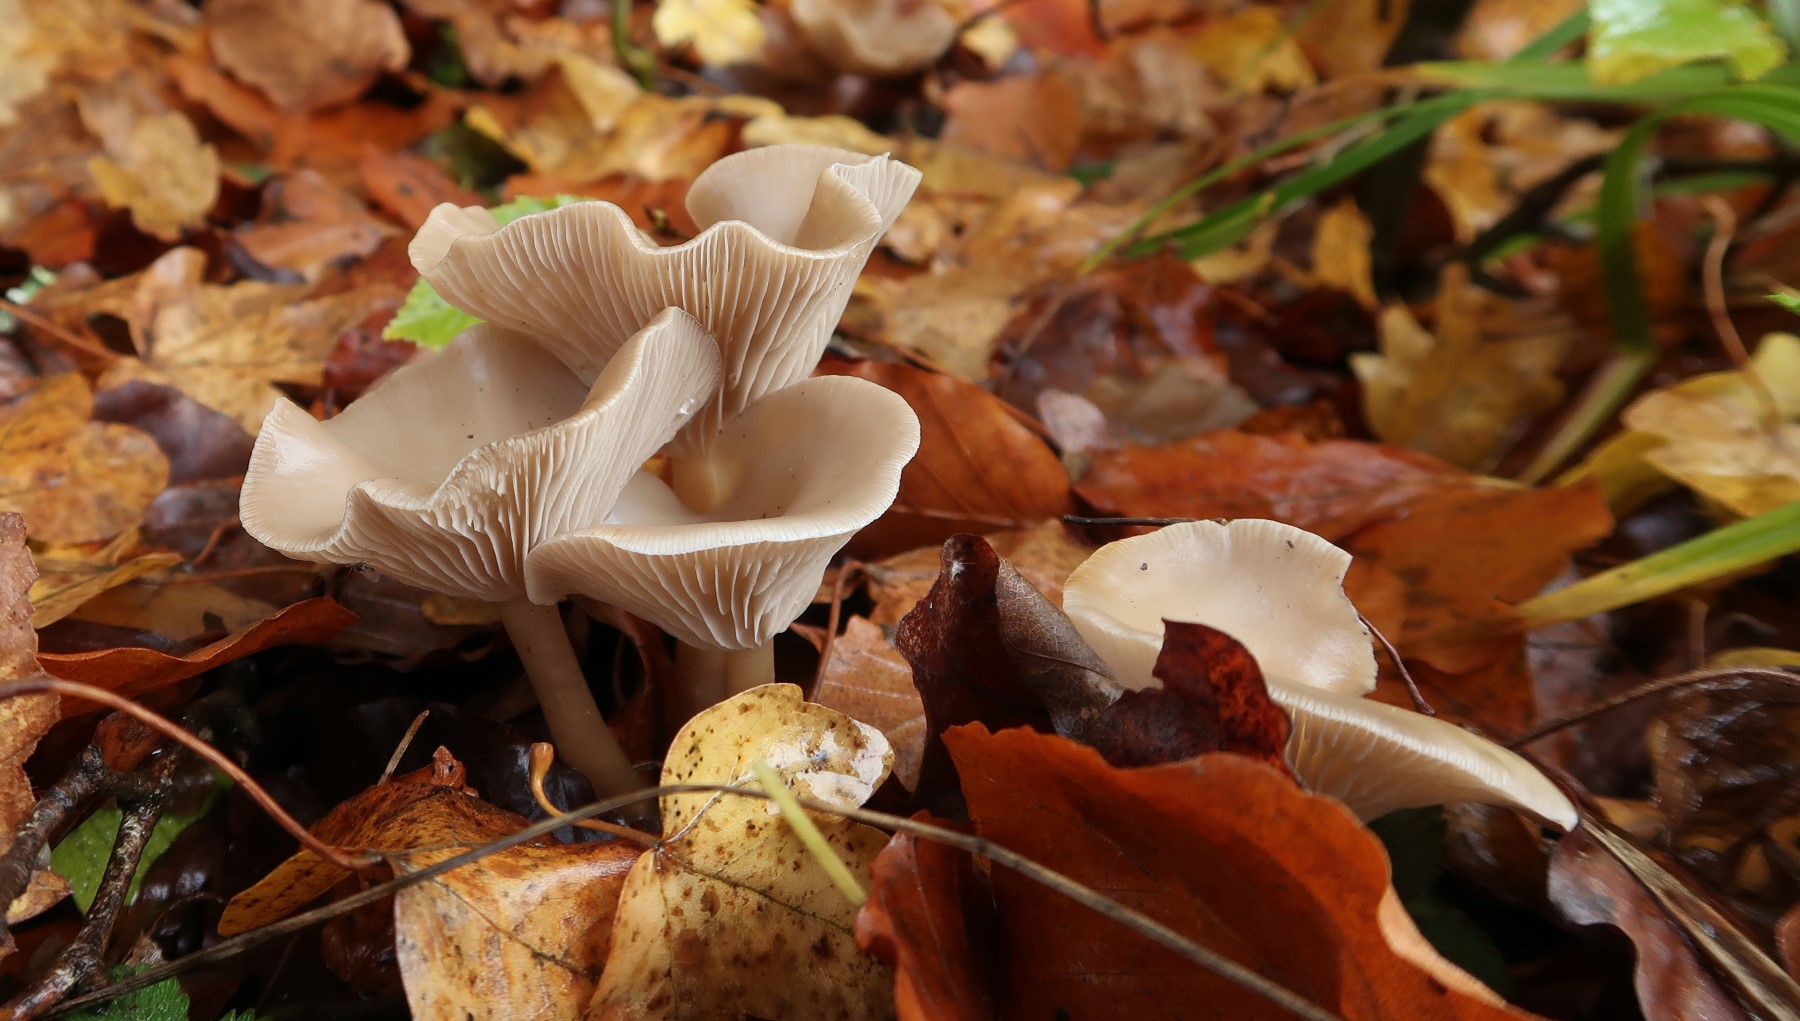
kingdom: Fungi
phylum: Basidiomycota
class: Agaricomycetes
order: Agaricales
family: Tricholomataceae
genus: Clitocybe
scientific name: Clitocybe
